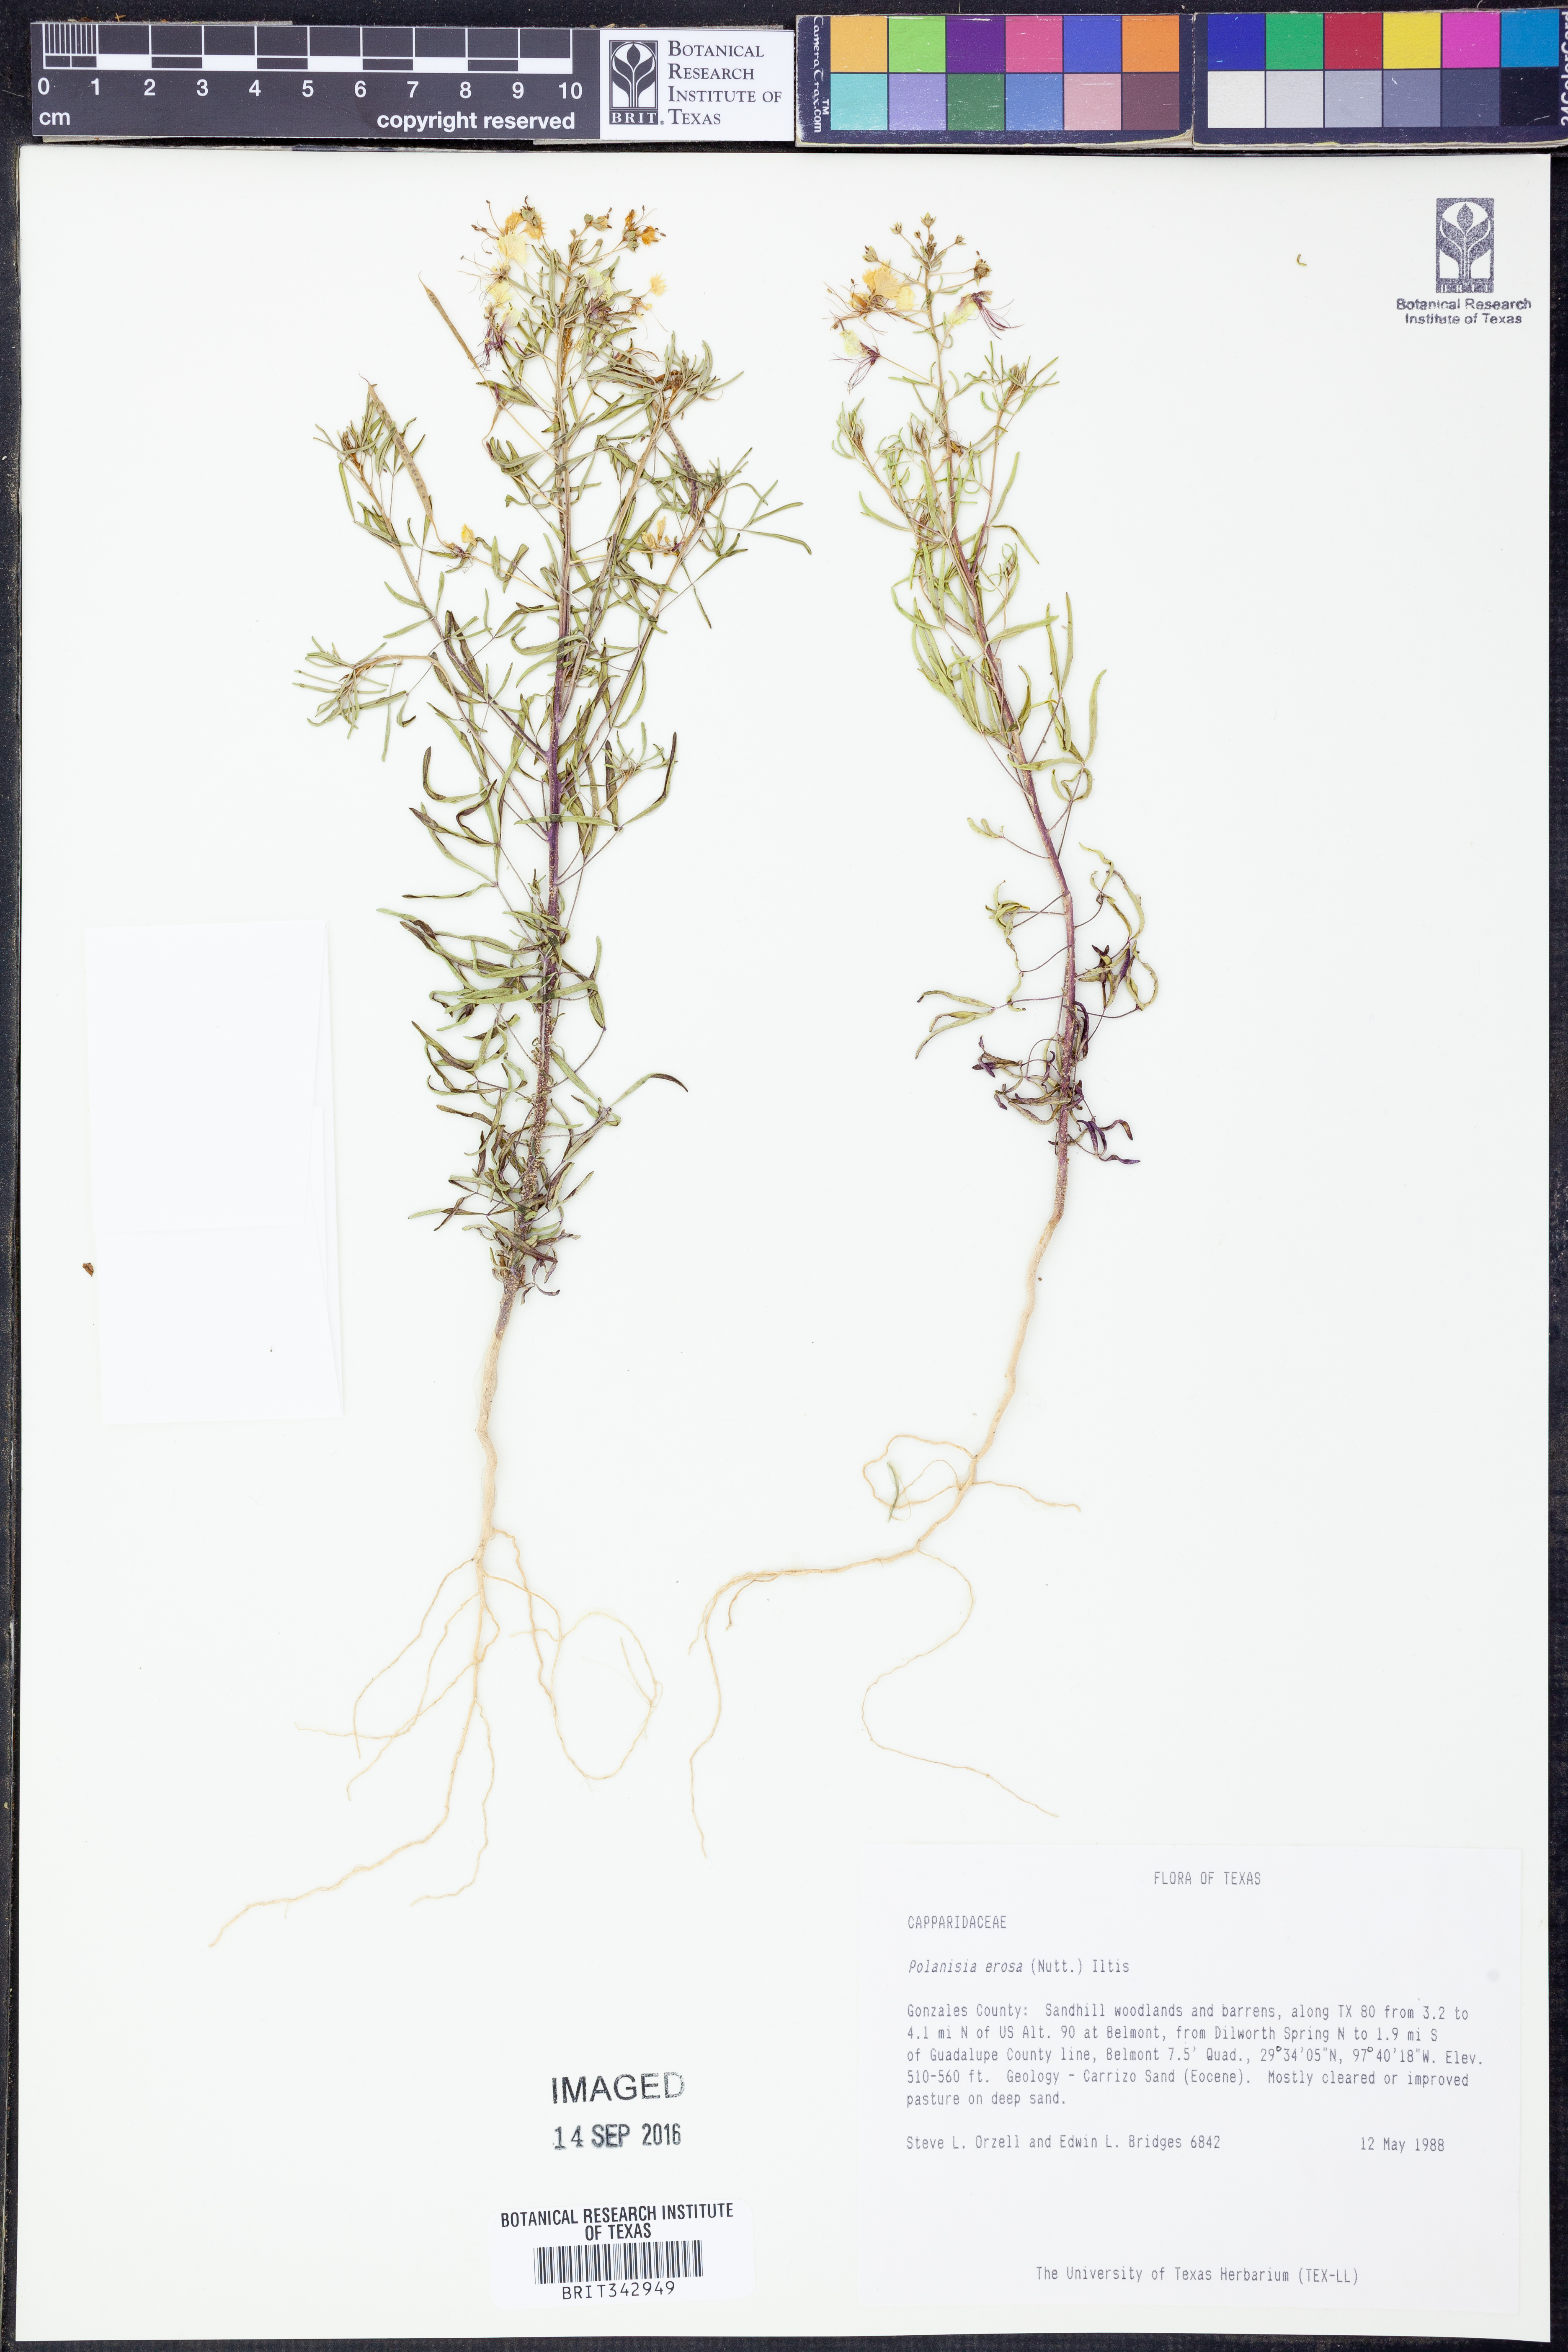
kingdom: Plantae
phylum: Tracheophyta
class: Magnoliopsida
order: Brassicales
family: Cleomaceae
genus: Polanisia
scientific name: Polanisia erosa
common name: Large clammyweed
